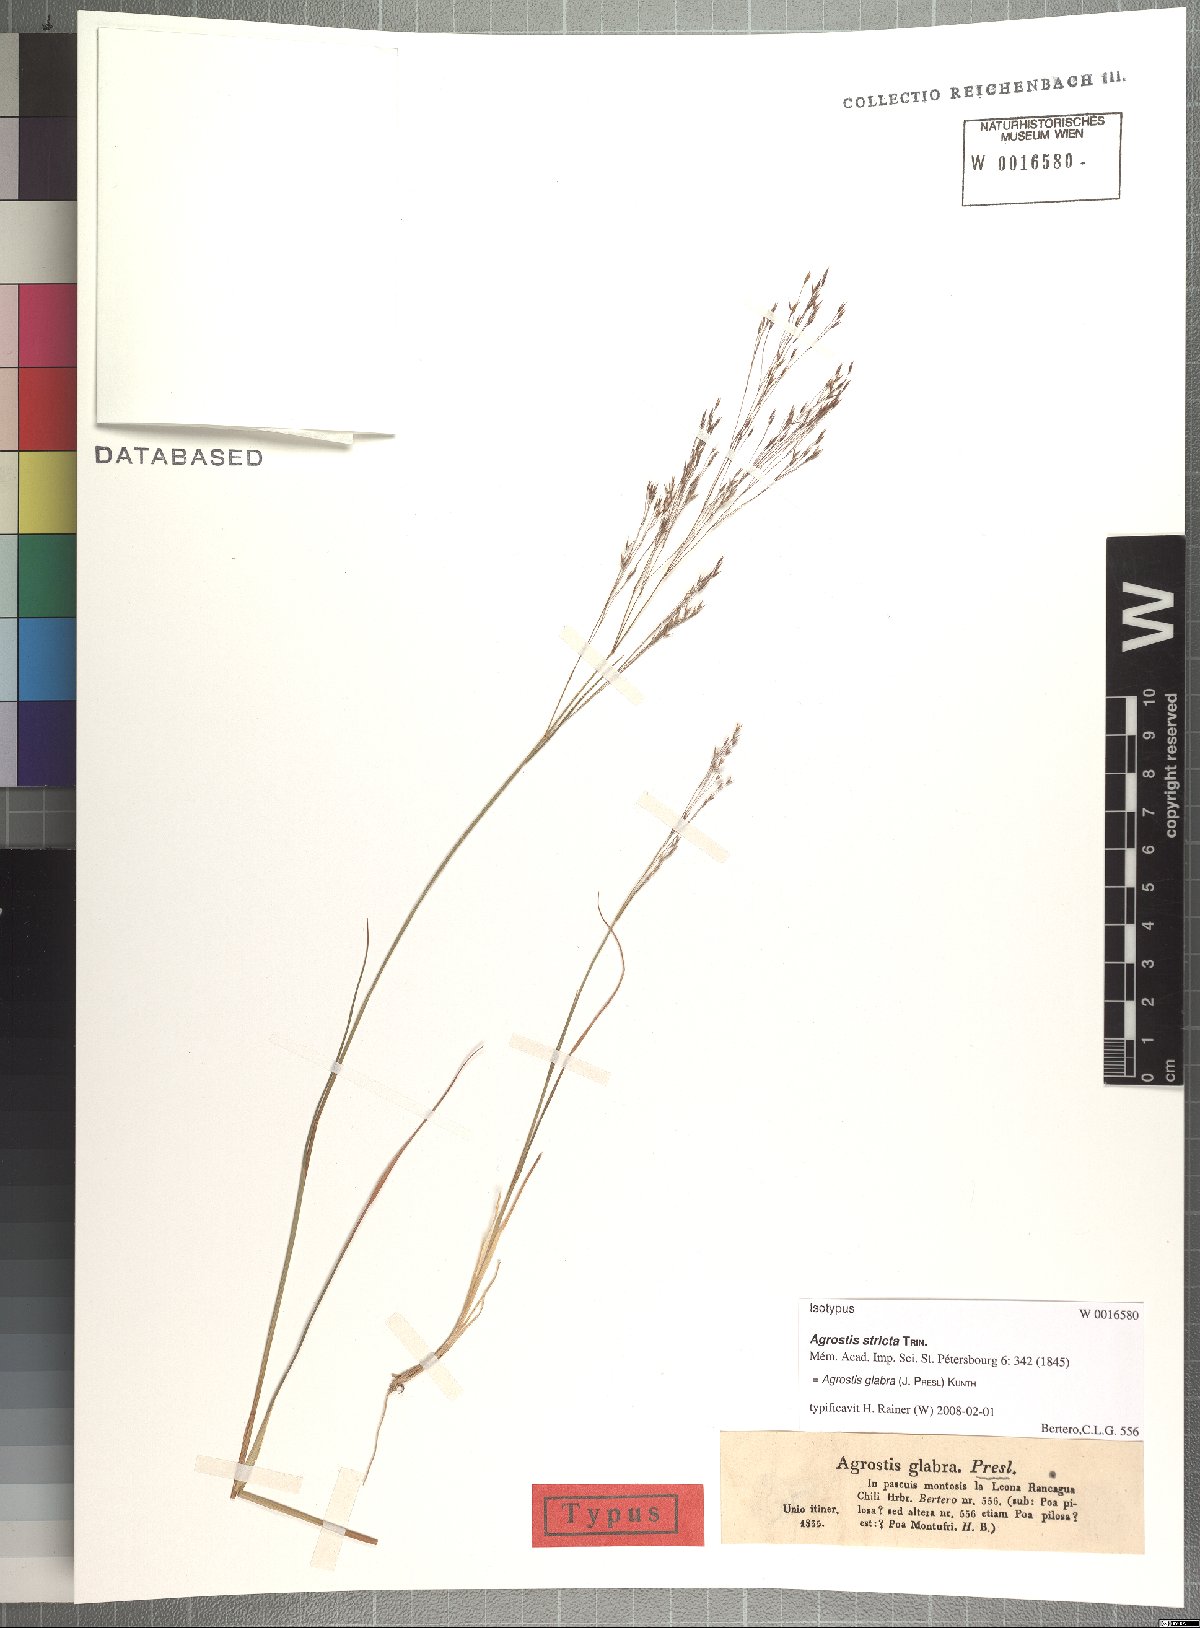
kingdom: Plantae
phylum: Tracheophyta
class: Liliopsida
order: Poales
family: Poaceae
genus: Agrostis
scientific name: Agrostis glabra
